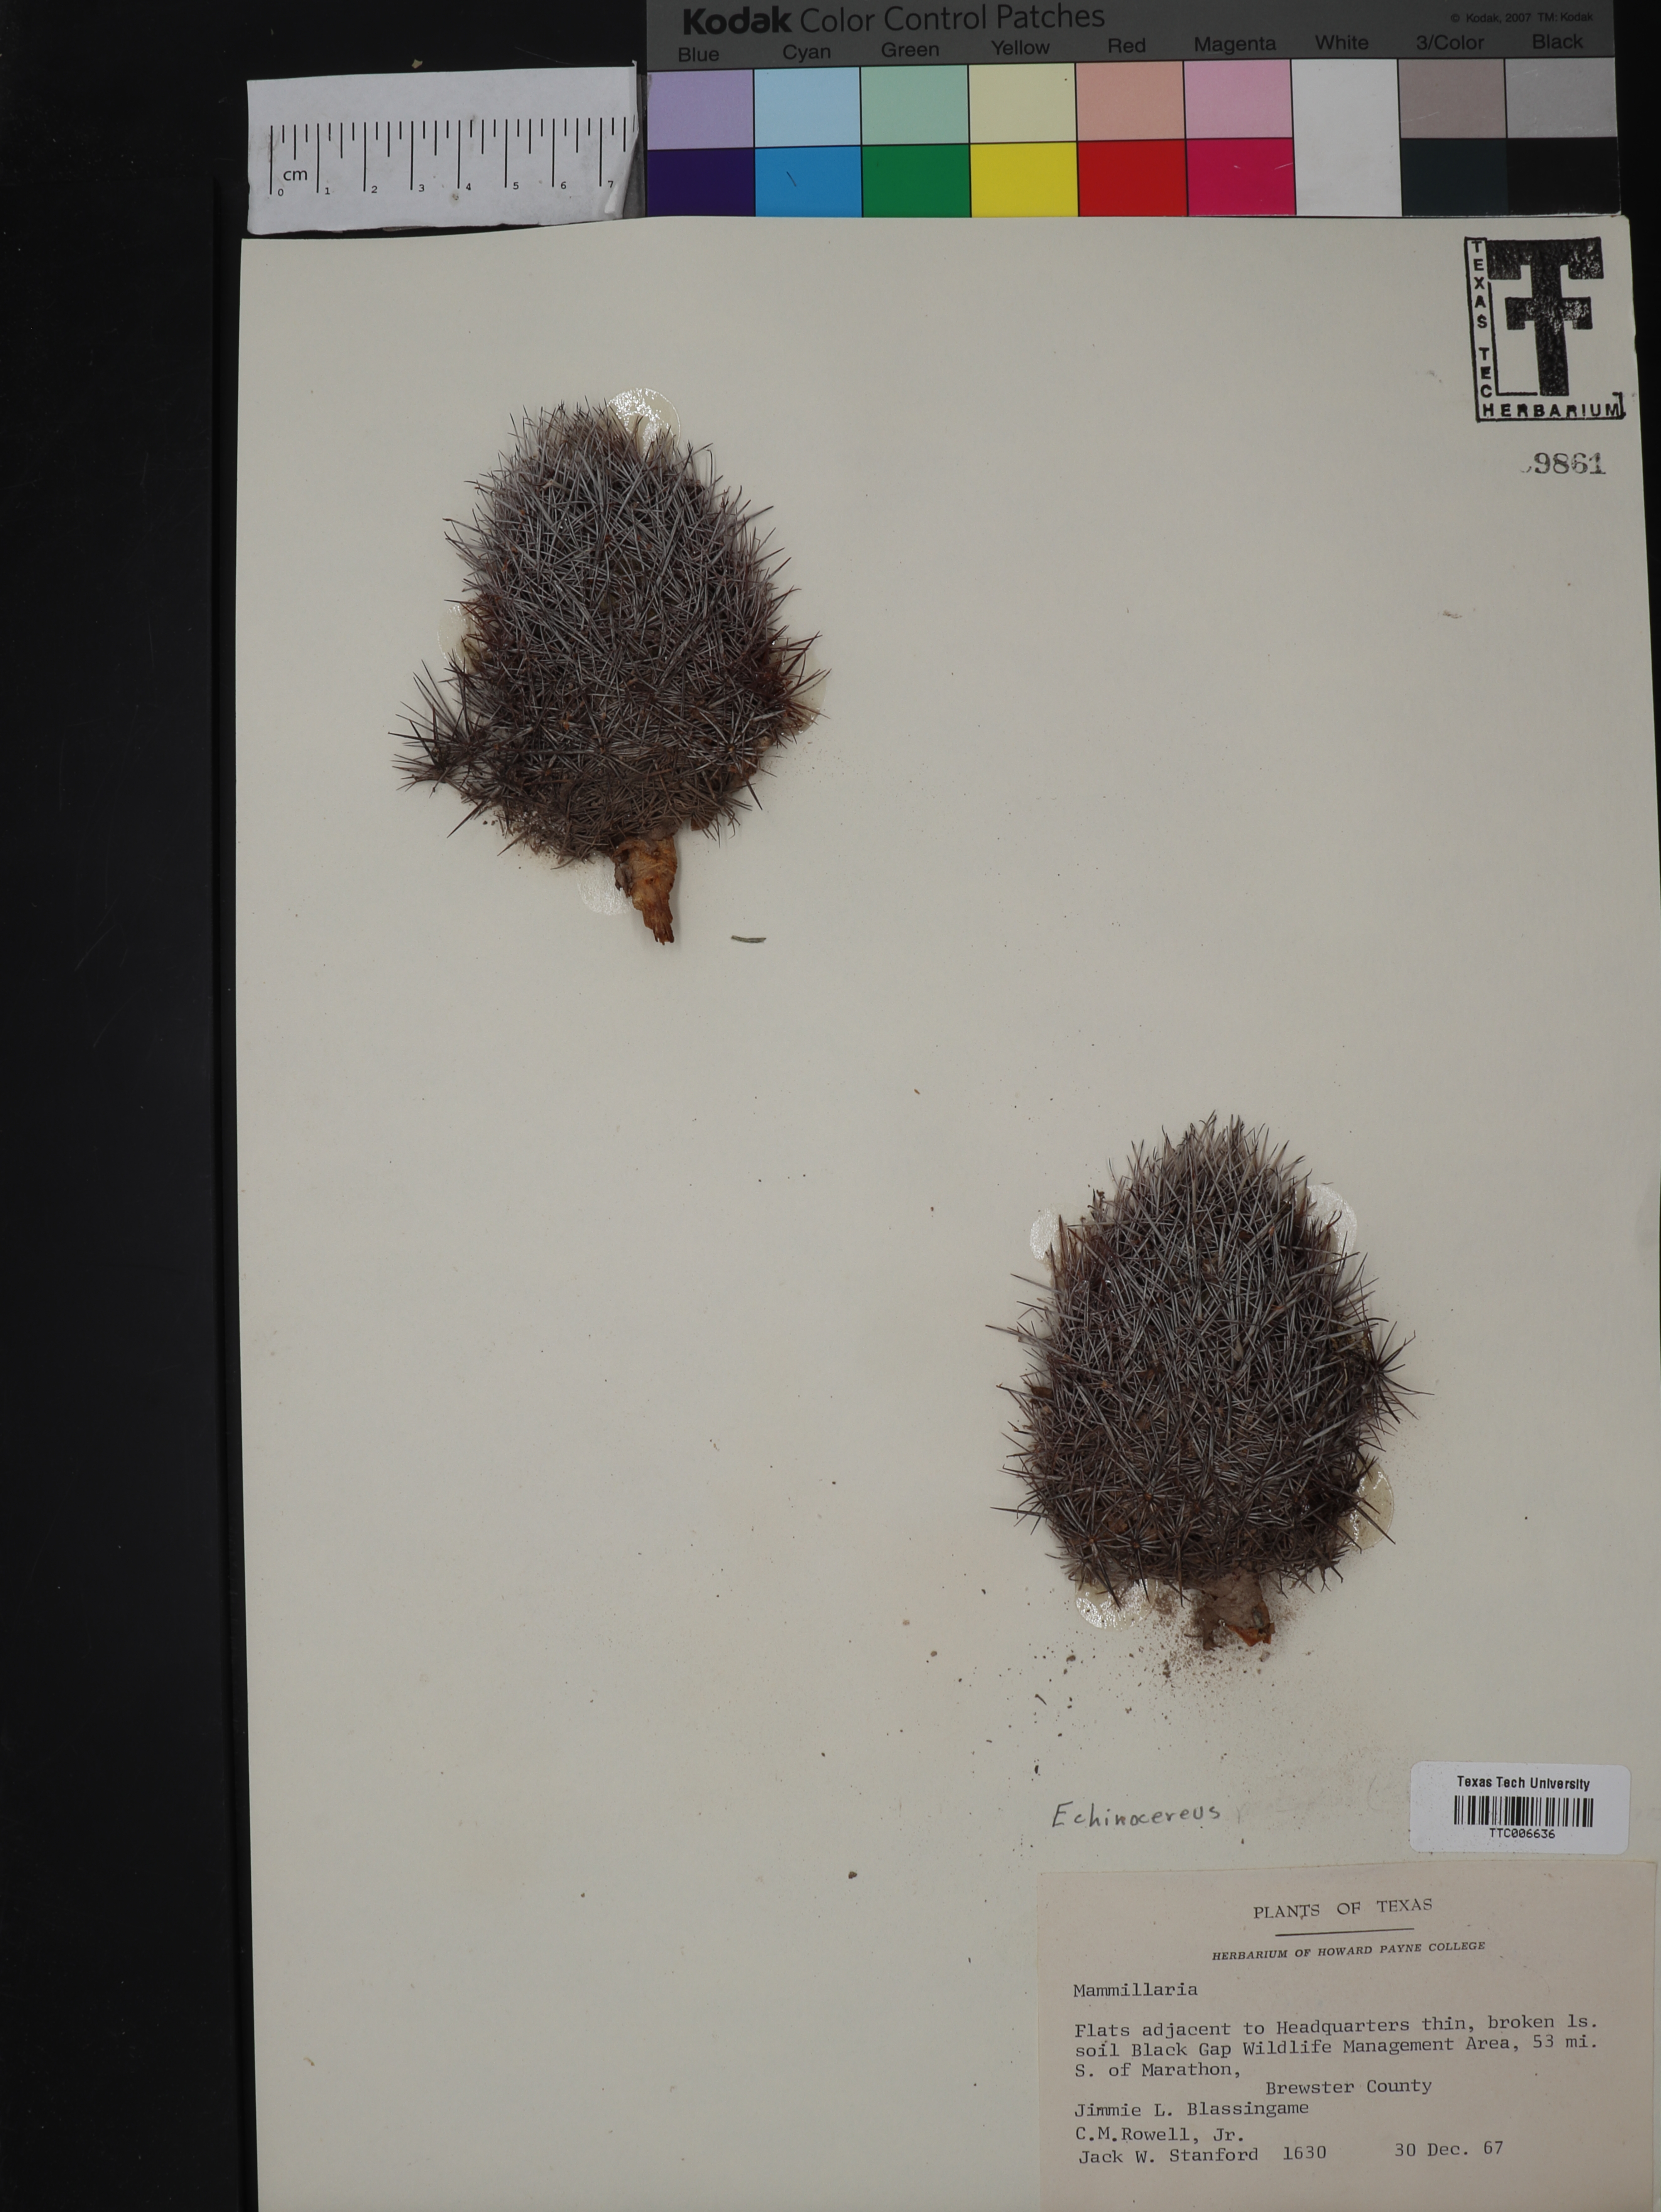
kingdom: Plantae
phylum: Tracheophyta
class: Magnoliopsida
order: Caryophyllales
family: Cactaceae
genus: Echinocereus
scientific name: Echinocereus
